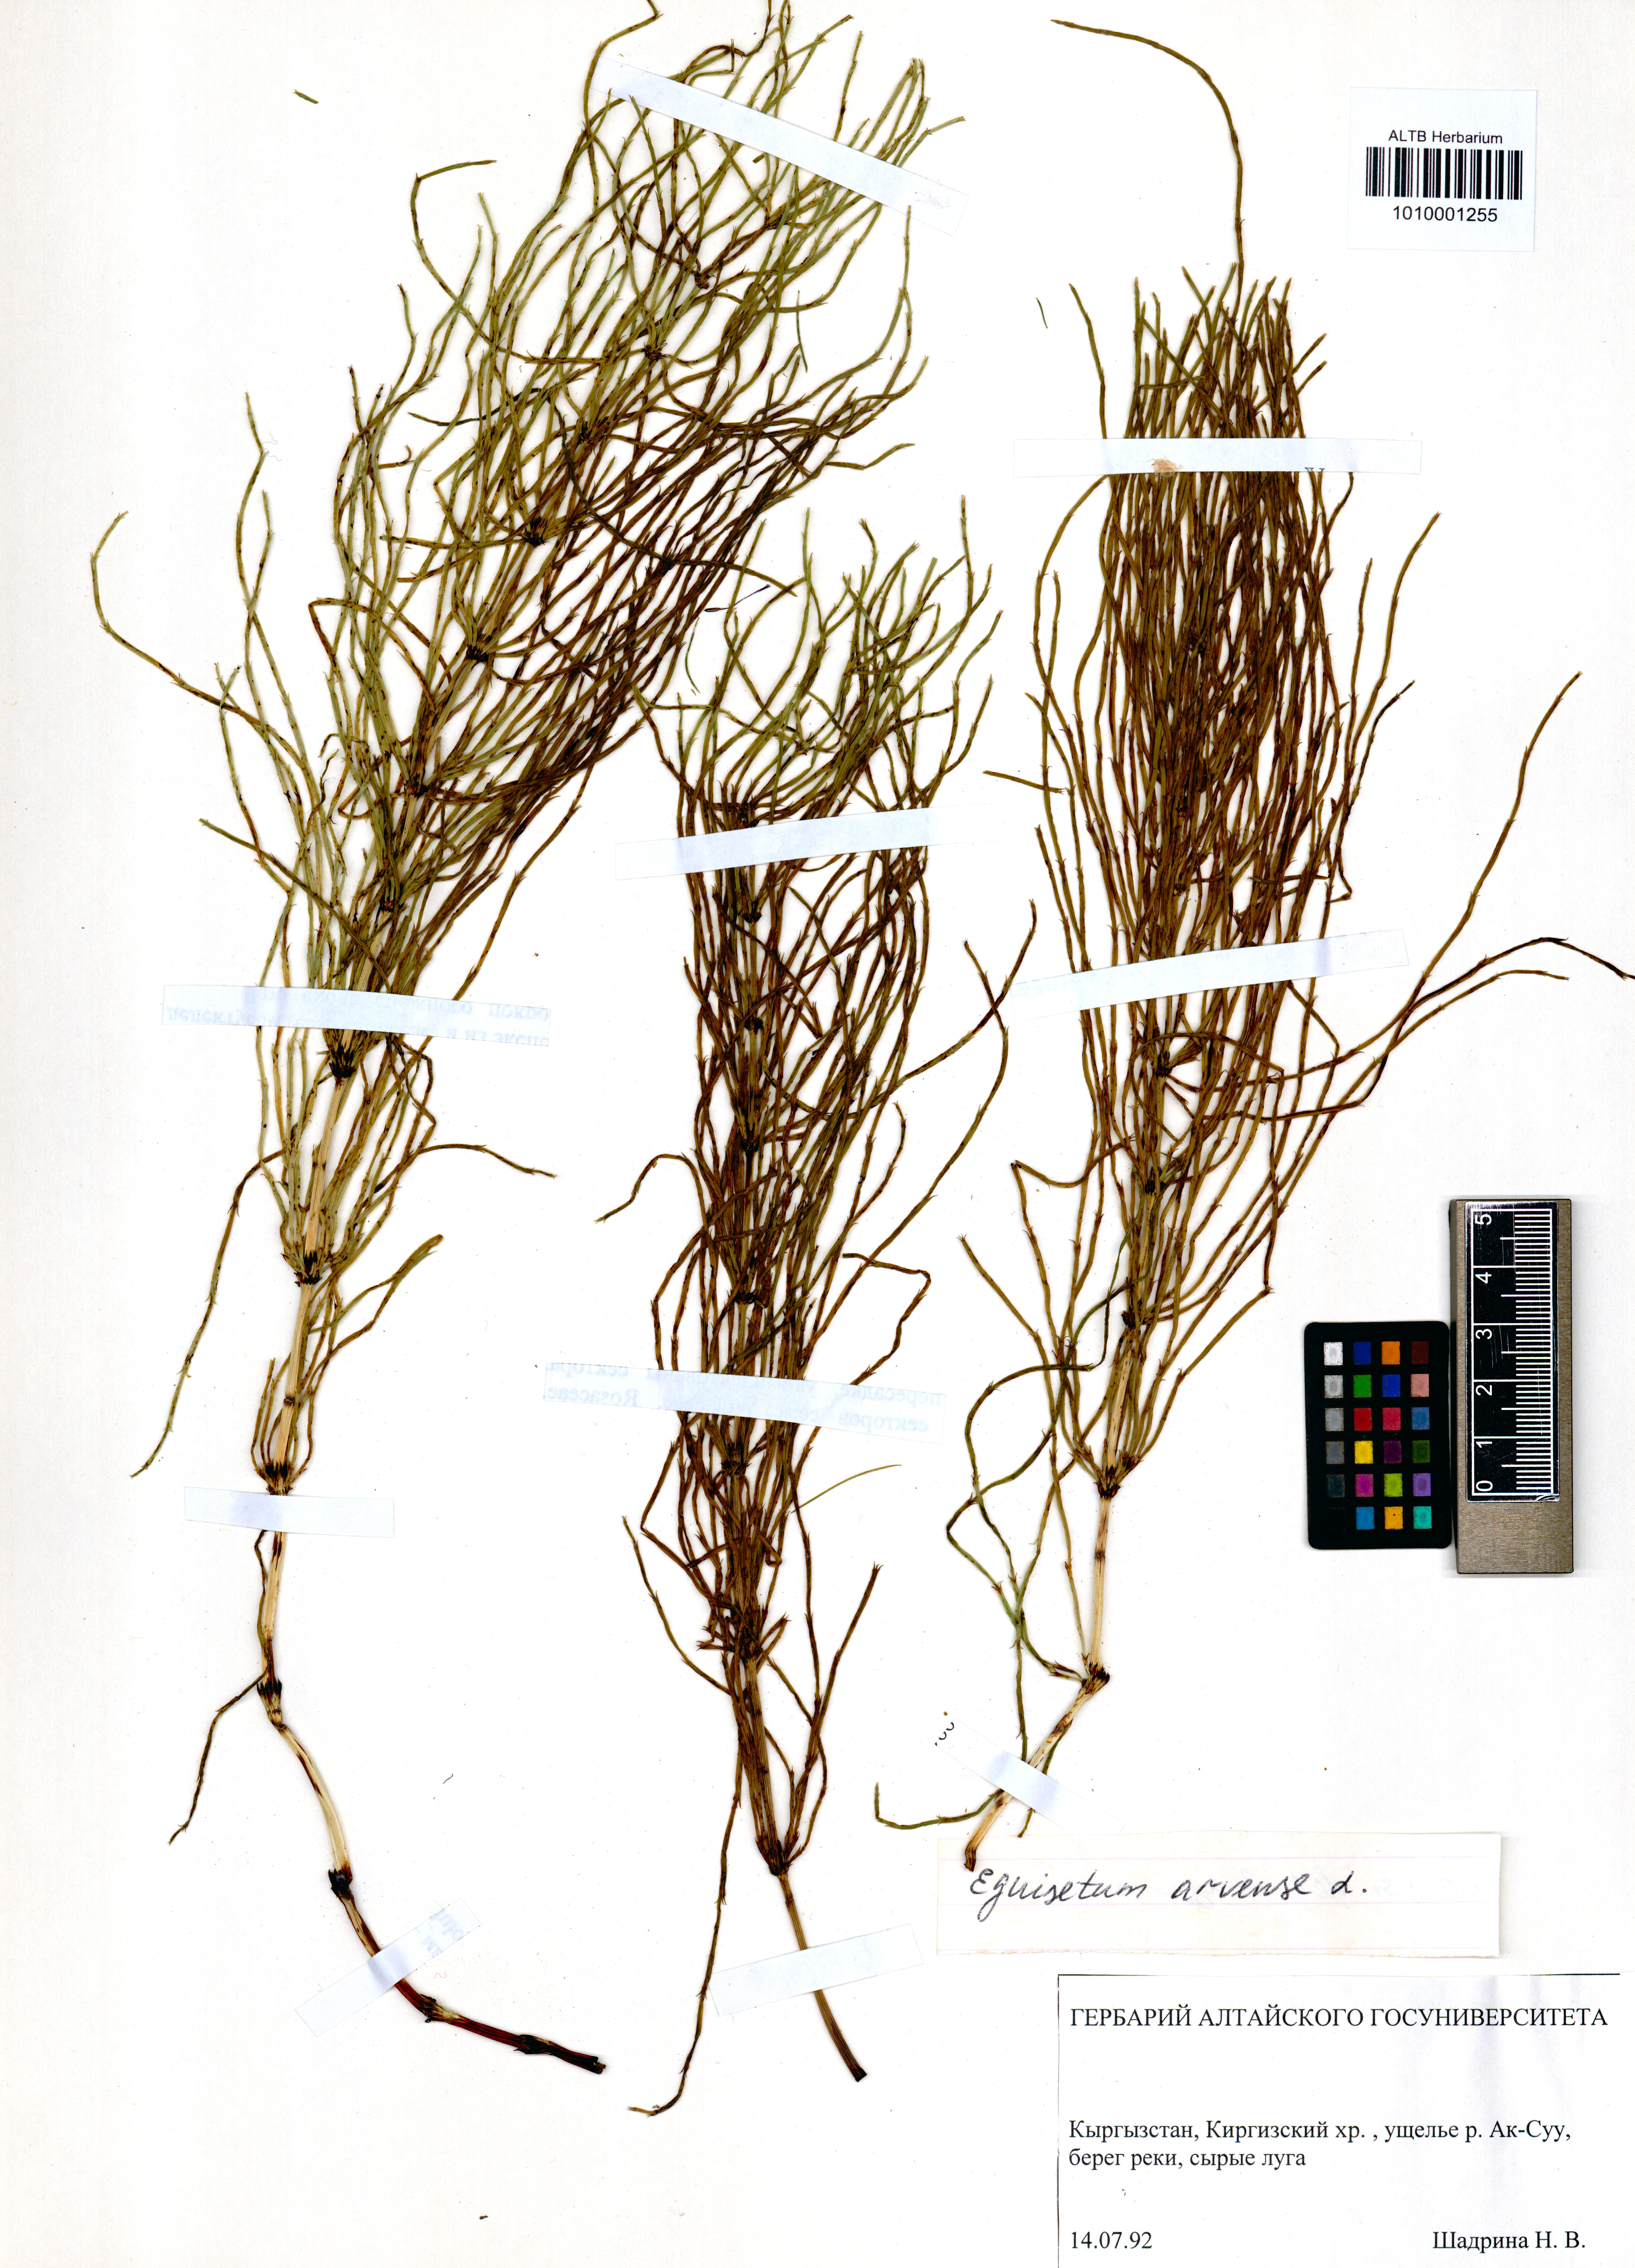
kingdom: Plantae
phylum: Tracheophyta
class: Polypodiopsida
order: Equisetales
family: Equisetaceae
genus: Equisetum
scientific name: Equisetum arvense
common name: Field horsetail
